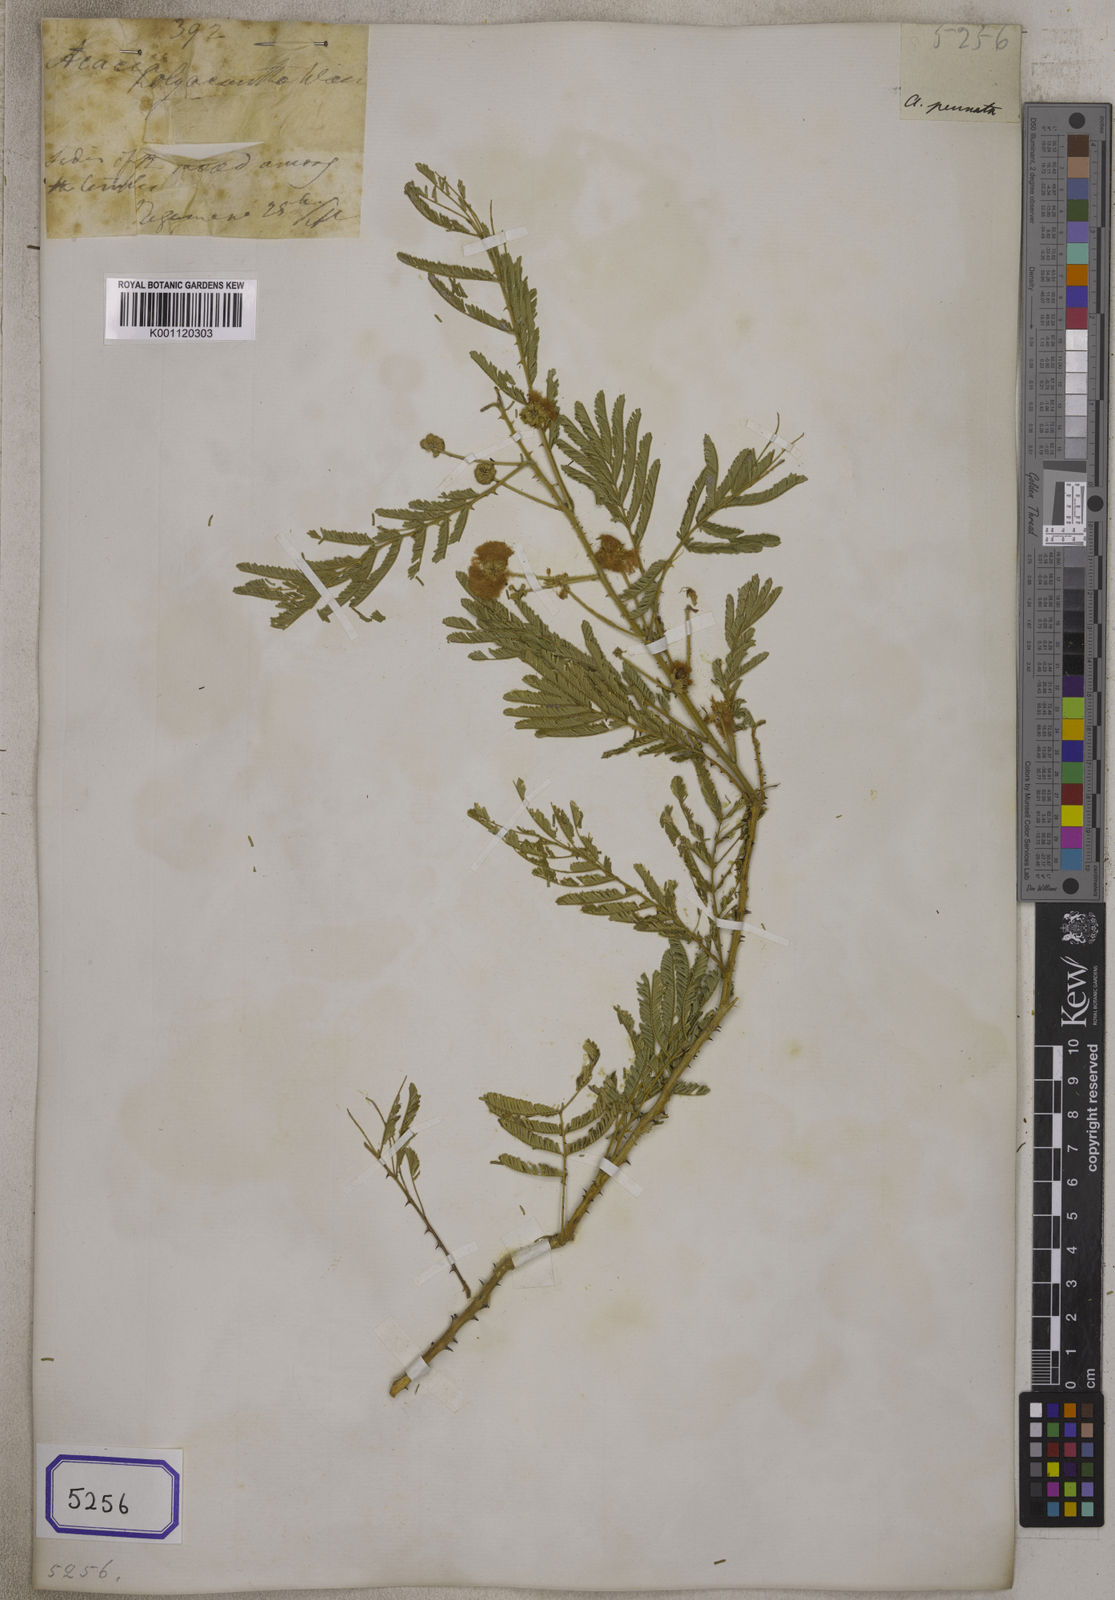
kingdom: Plantae
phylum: Tracheophyta
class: Magnoliopsida
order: Fabales
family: Fabaceae
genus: Acacia
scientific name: Acacia
